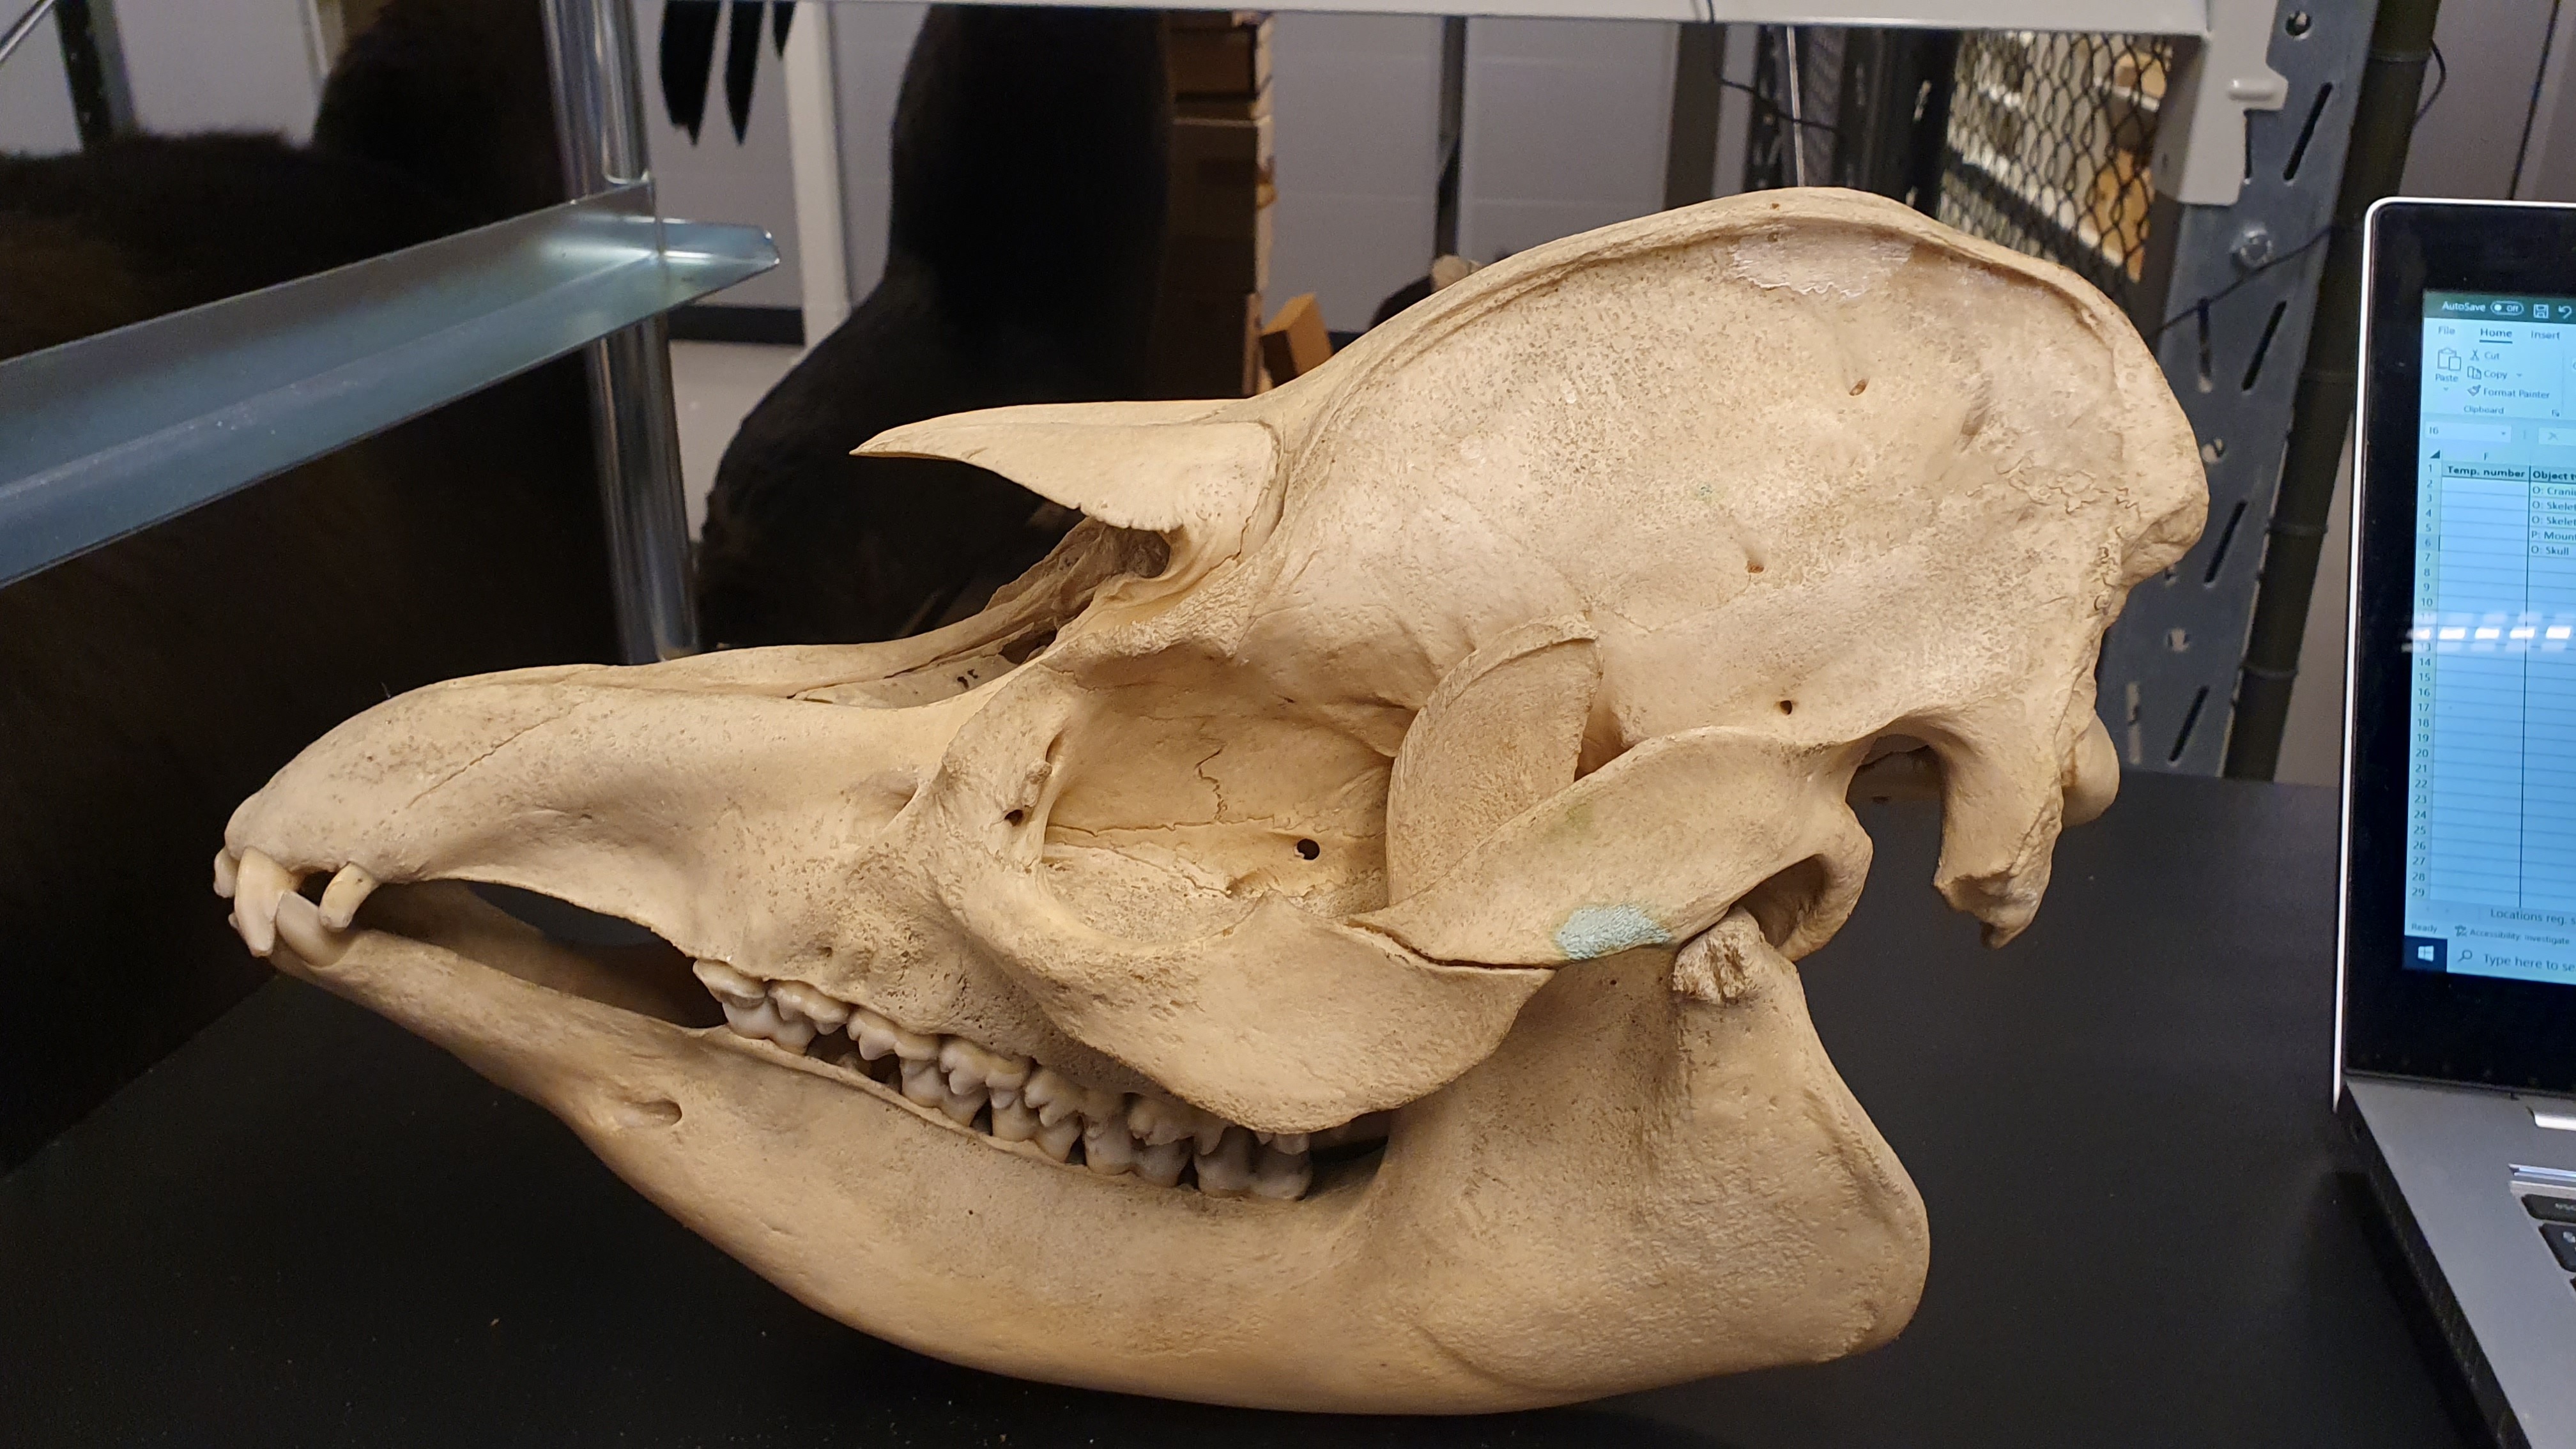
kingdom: Animalia
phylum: Chordata
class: Mammalia
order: Perissodactyla
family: Tapiridae
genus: Tapirus
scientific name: Tapirus terrestris
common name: Brazilian tapir
